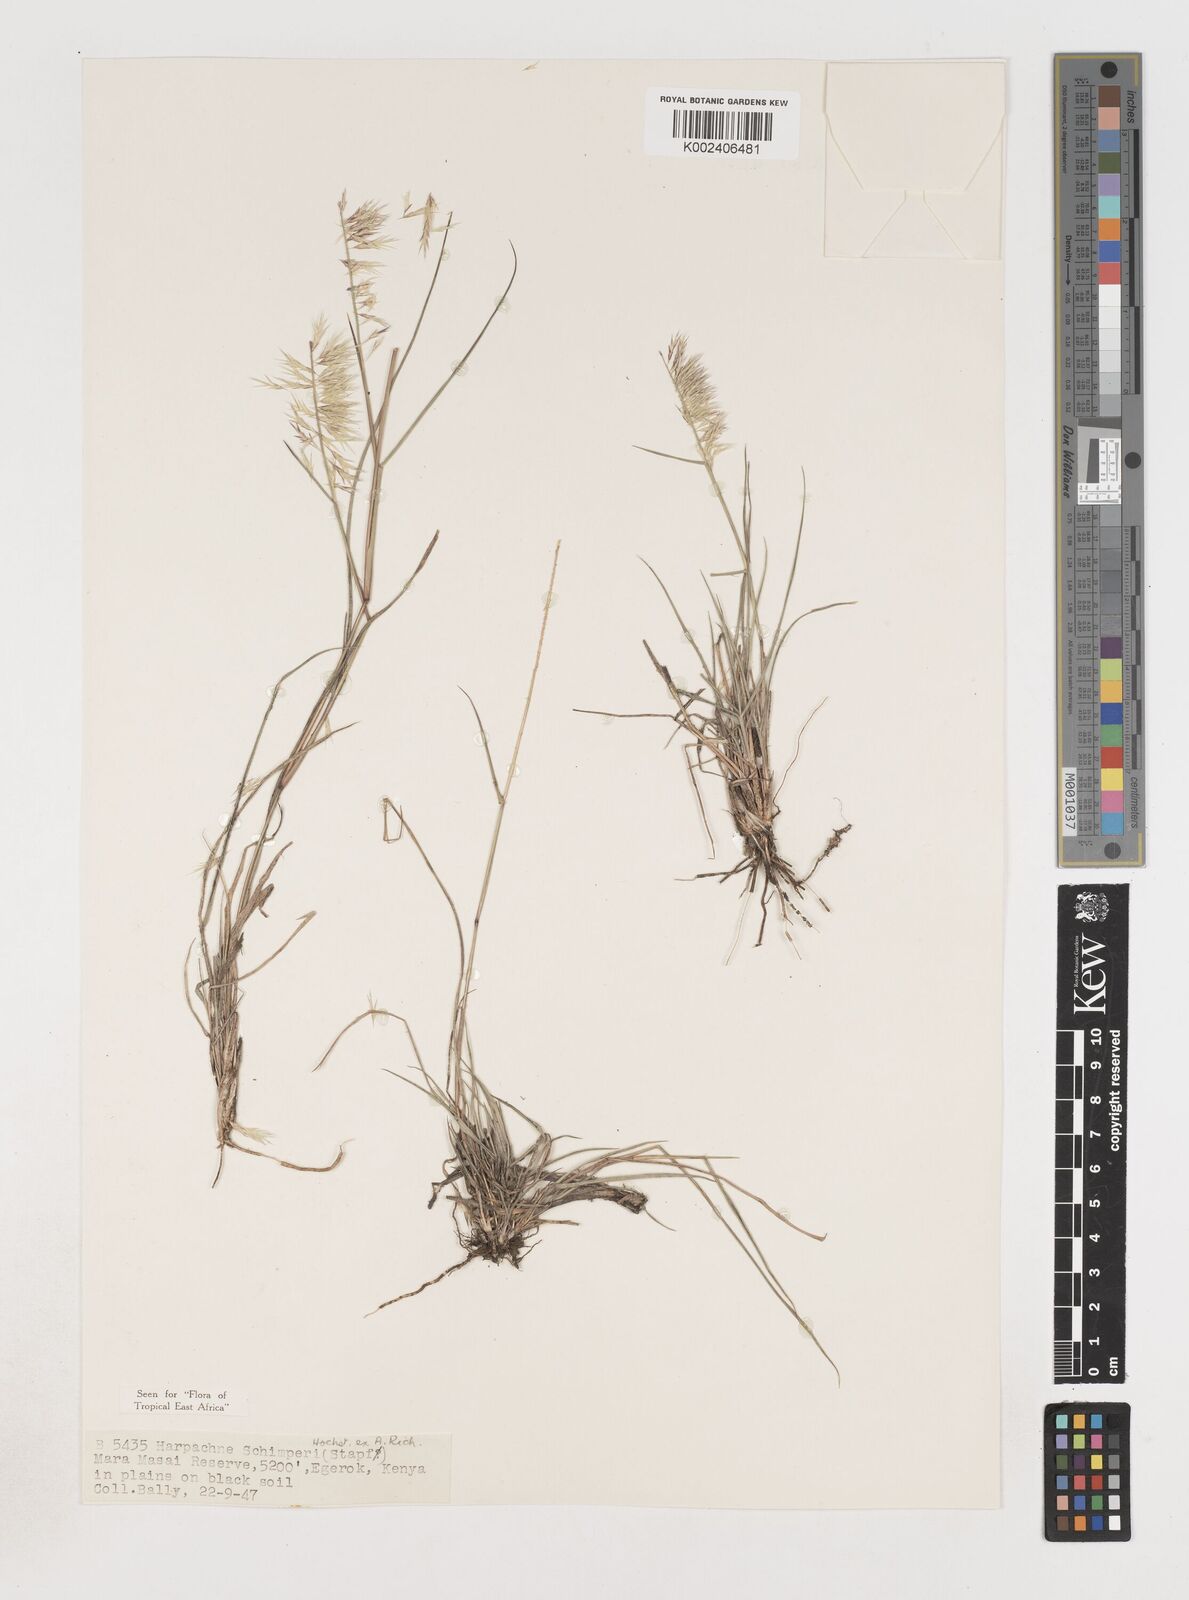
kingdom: Plantae
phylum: Tracheophyta
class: Liliopsida
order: Poales
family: Poaceae
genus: Harpachne
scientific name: Harpachne schimperi
